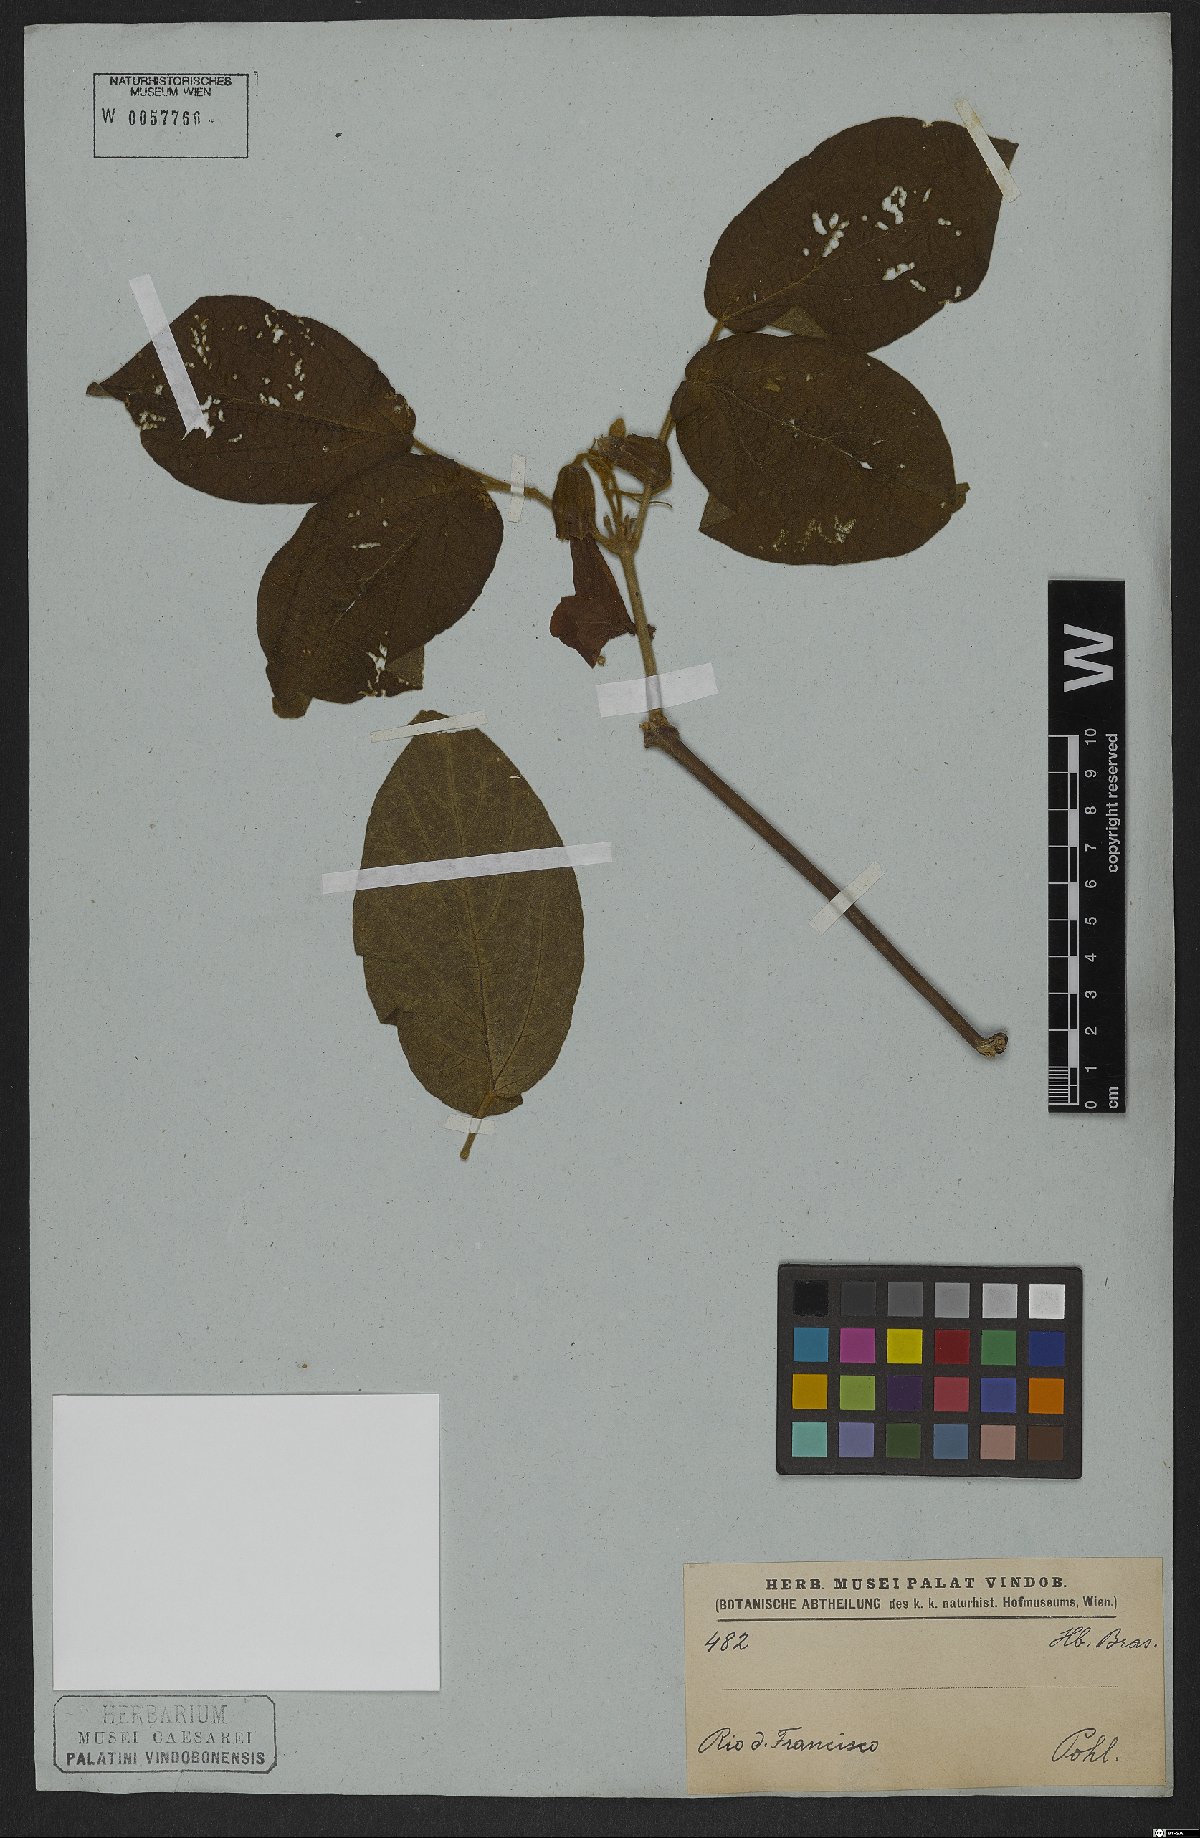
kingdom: Plantae
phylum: Tracheophyta
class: Magnoliopsida
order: Lamiales
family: Bignoniaceae
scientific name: Bignoniaceae
